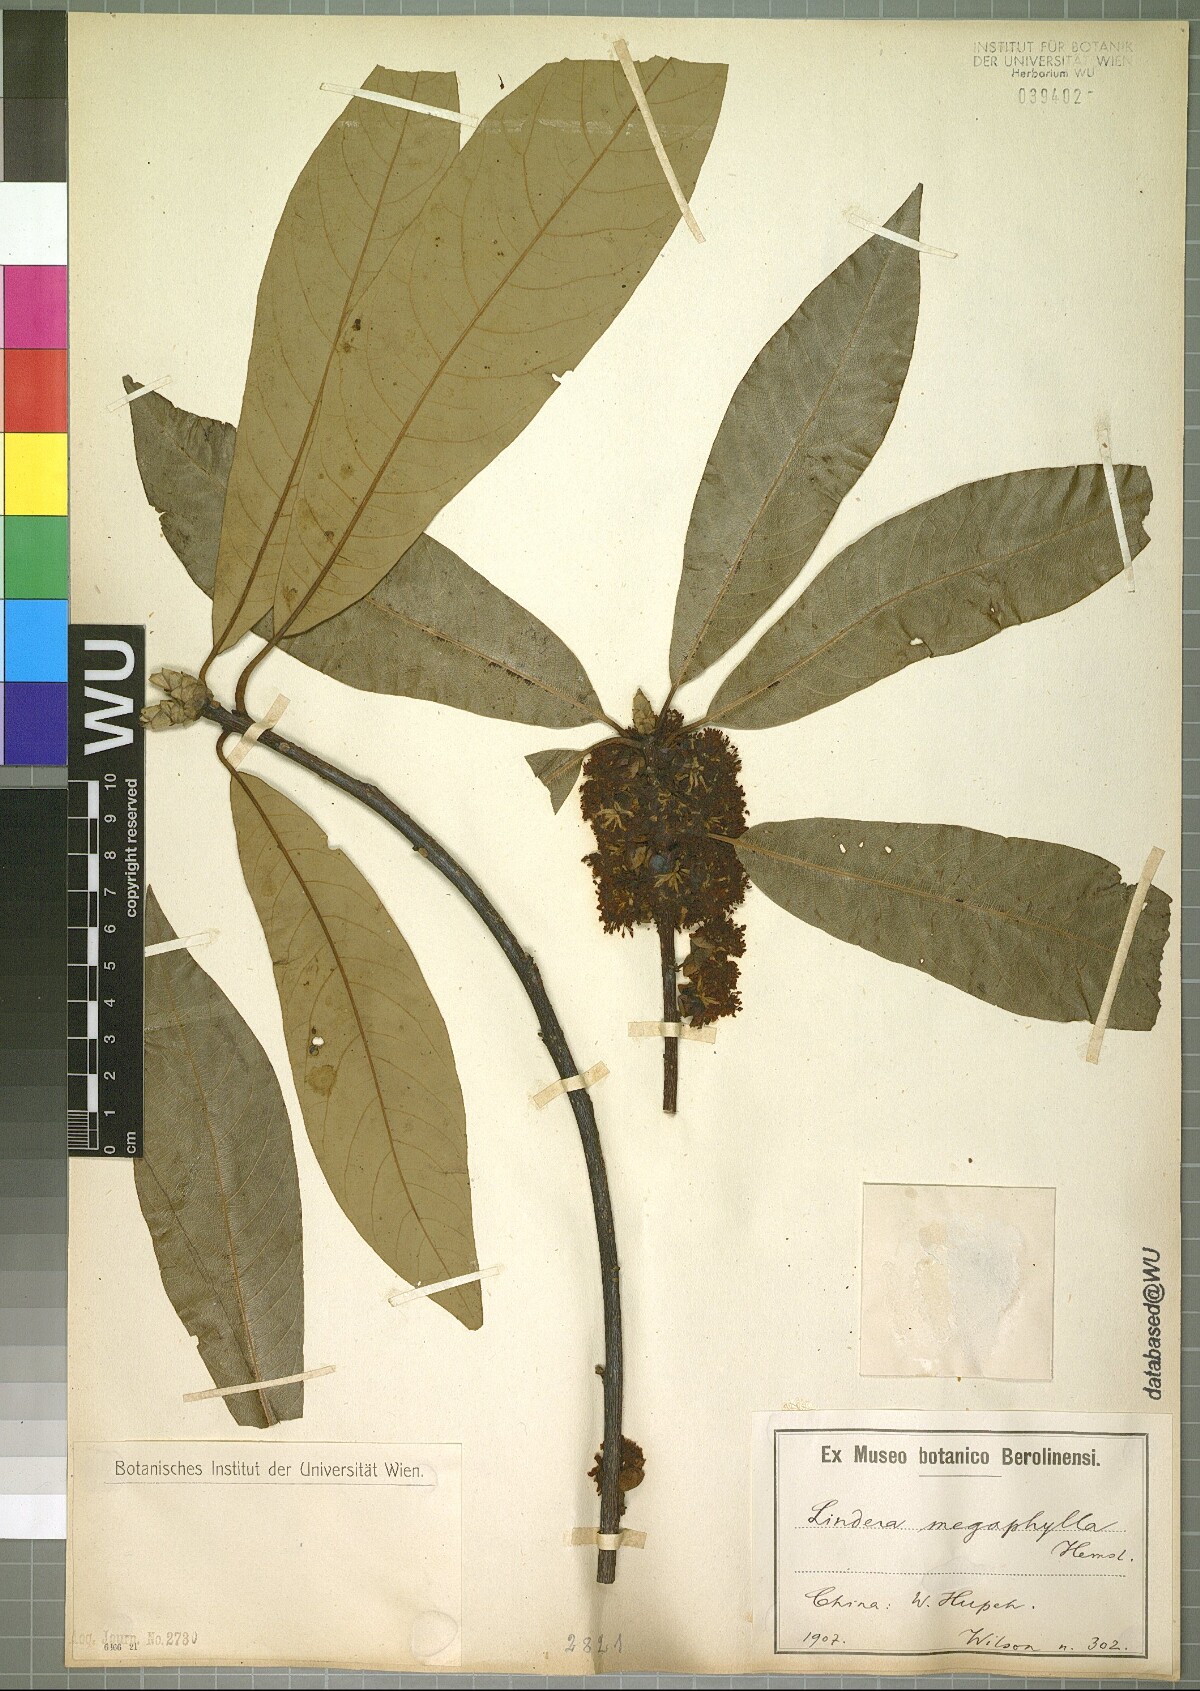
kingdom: Plantae
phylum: Tracheophyta
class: Magnoliopsida
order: Laurales
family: Lauraceae
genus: Lindera
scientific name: Lindera megaphylla
